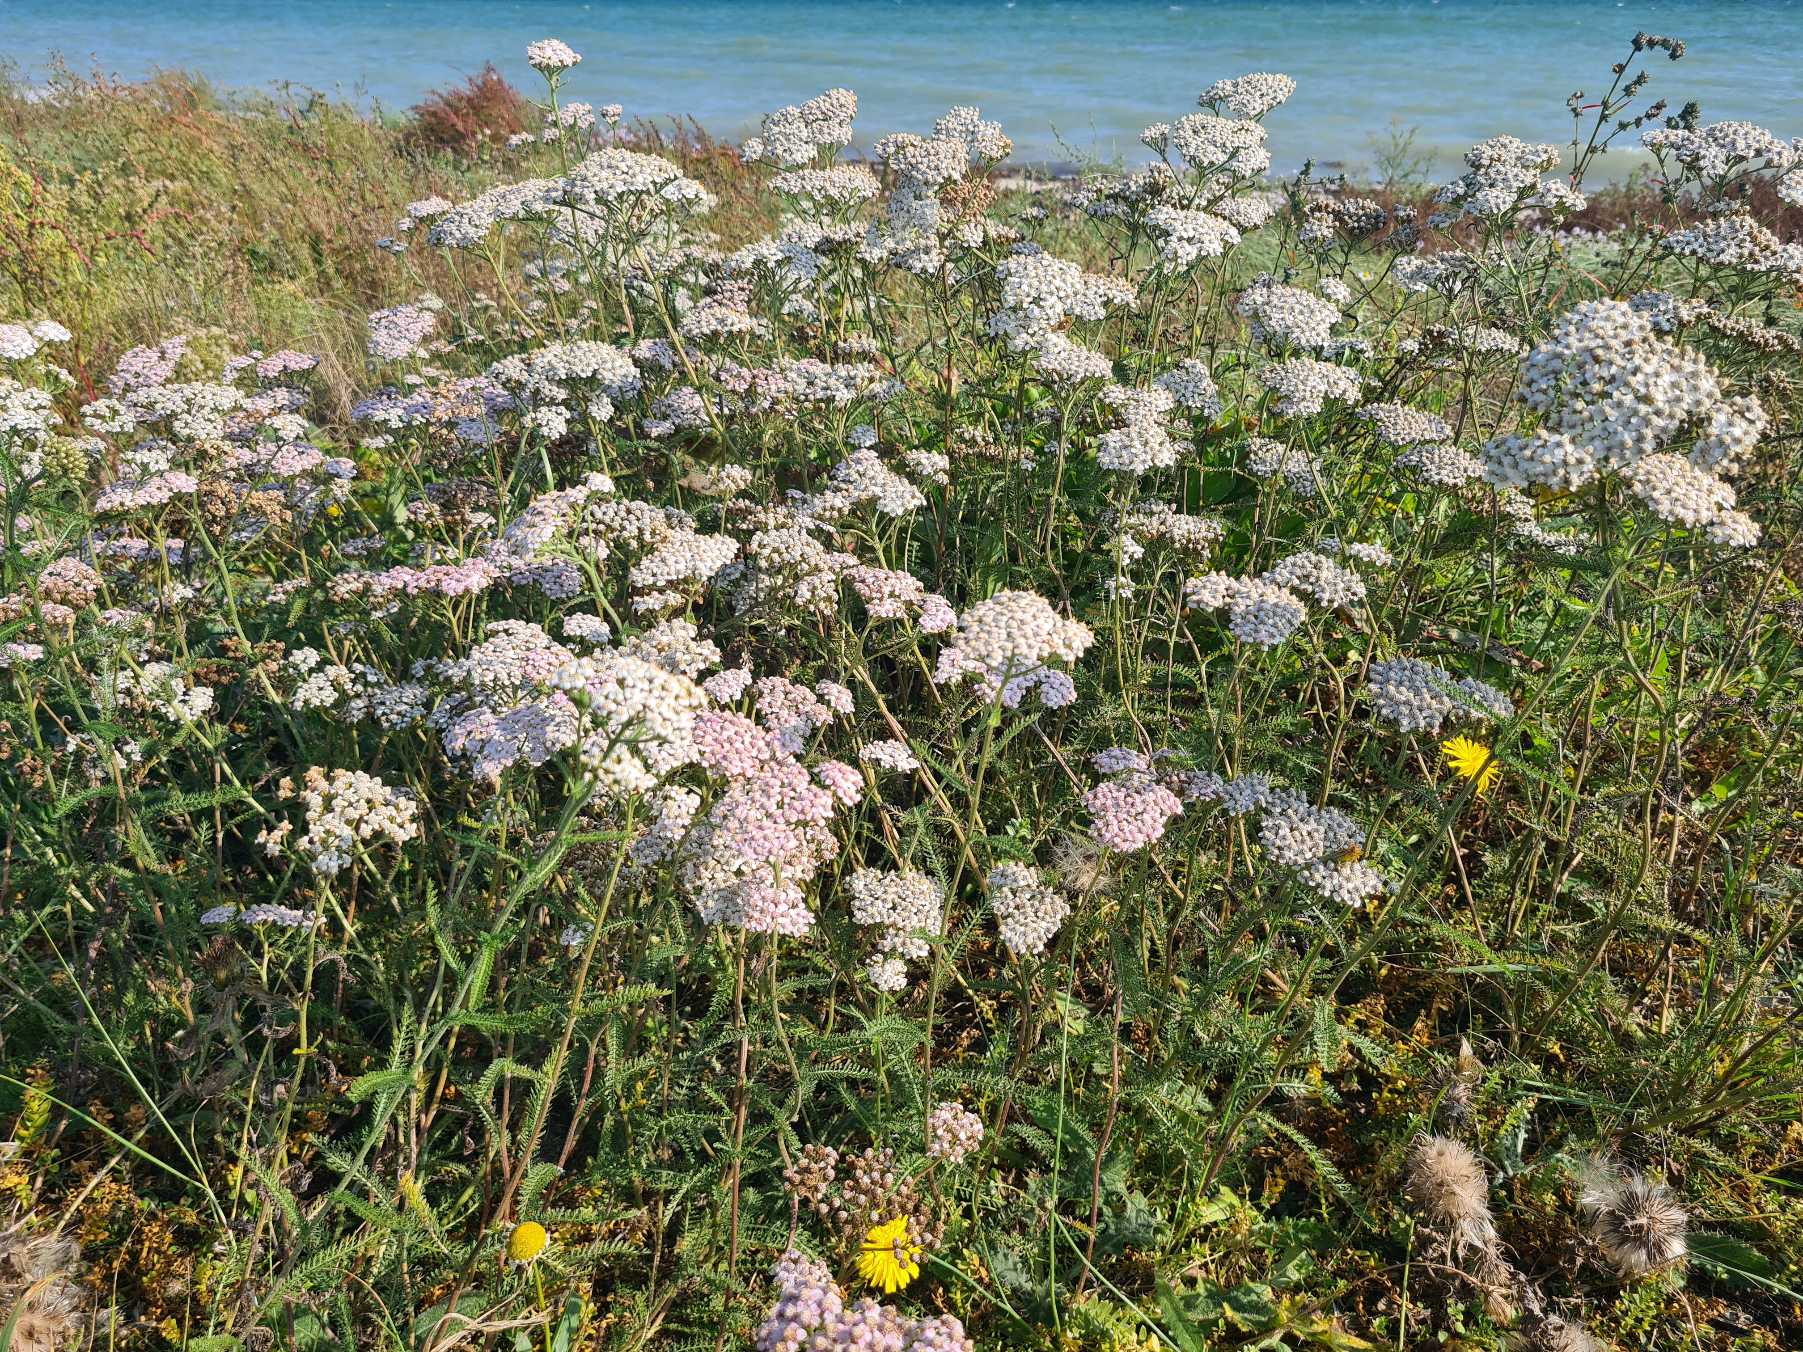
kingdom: Plantae
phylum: Tracheophyta
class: Magnoliopsida
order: Asterales
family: Asteraceae
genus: Achillea
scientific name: Achillea millefolium
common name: Almindelig røllike
